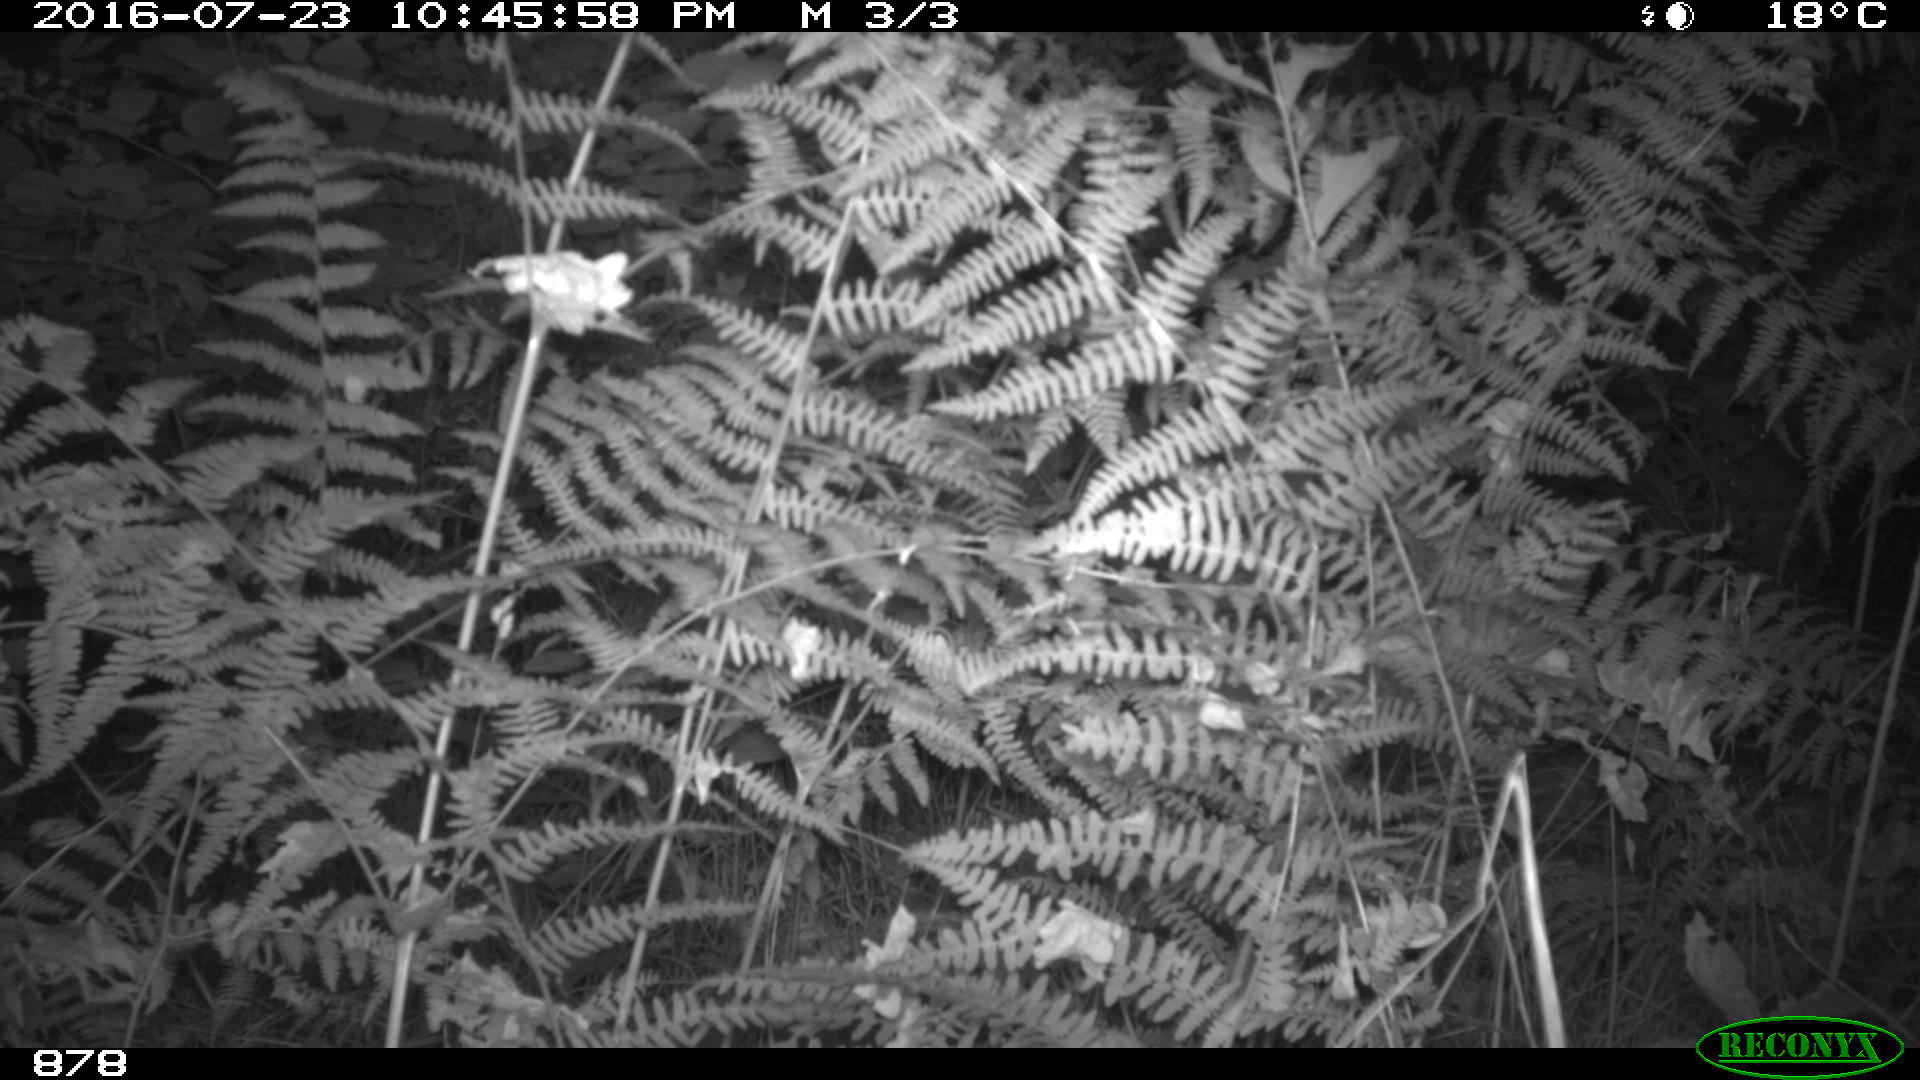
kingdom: Animalia
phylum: Chordata
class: Mammalia
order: Artiodactyla
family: Suidae
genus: Sus
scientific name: Sus scrofa
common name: Wild boar
